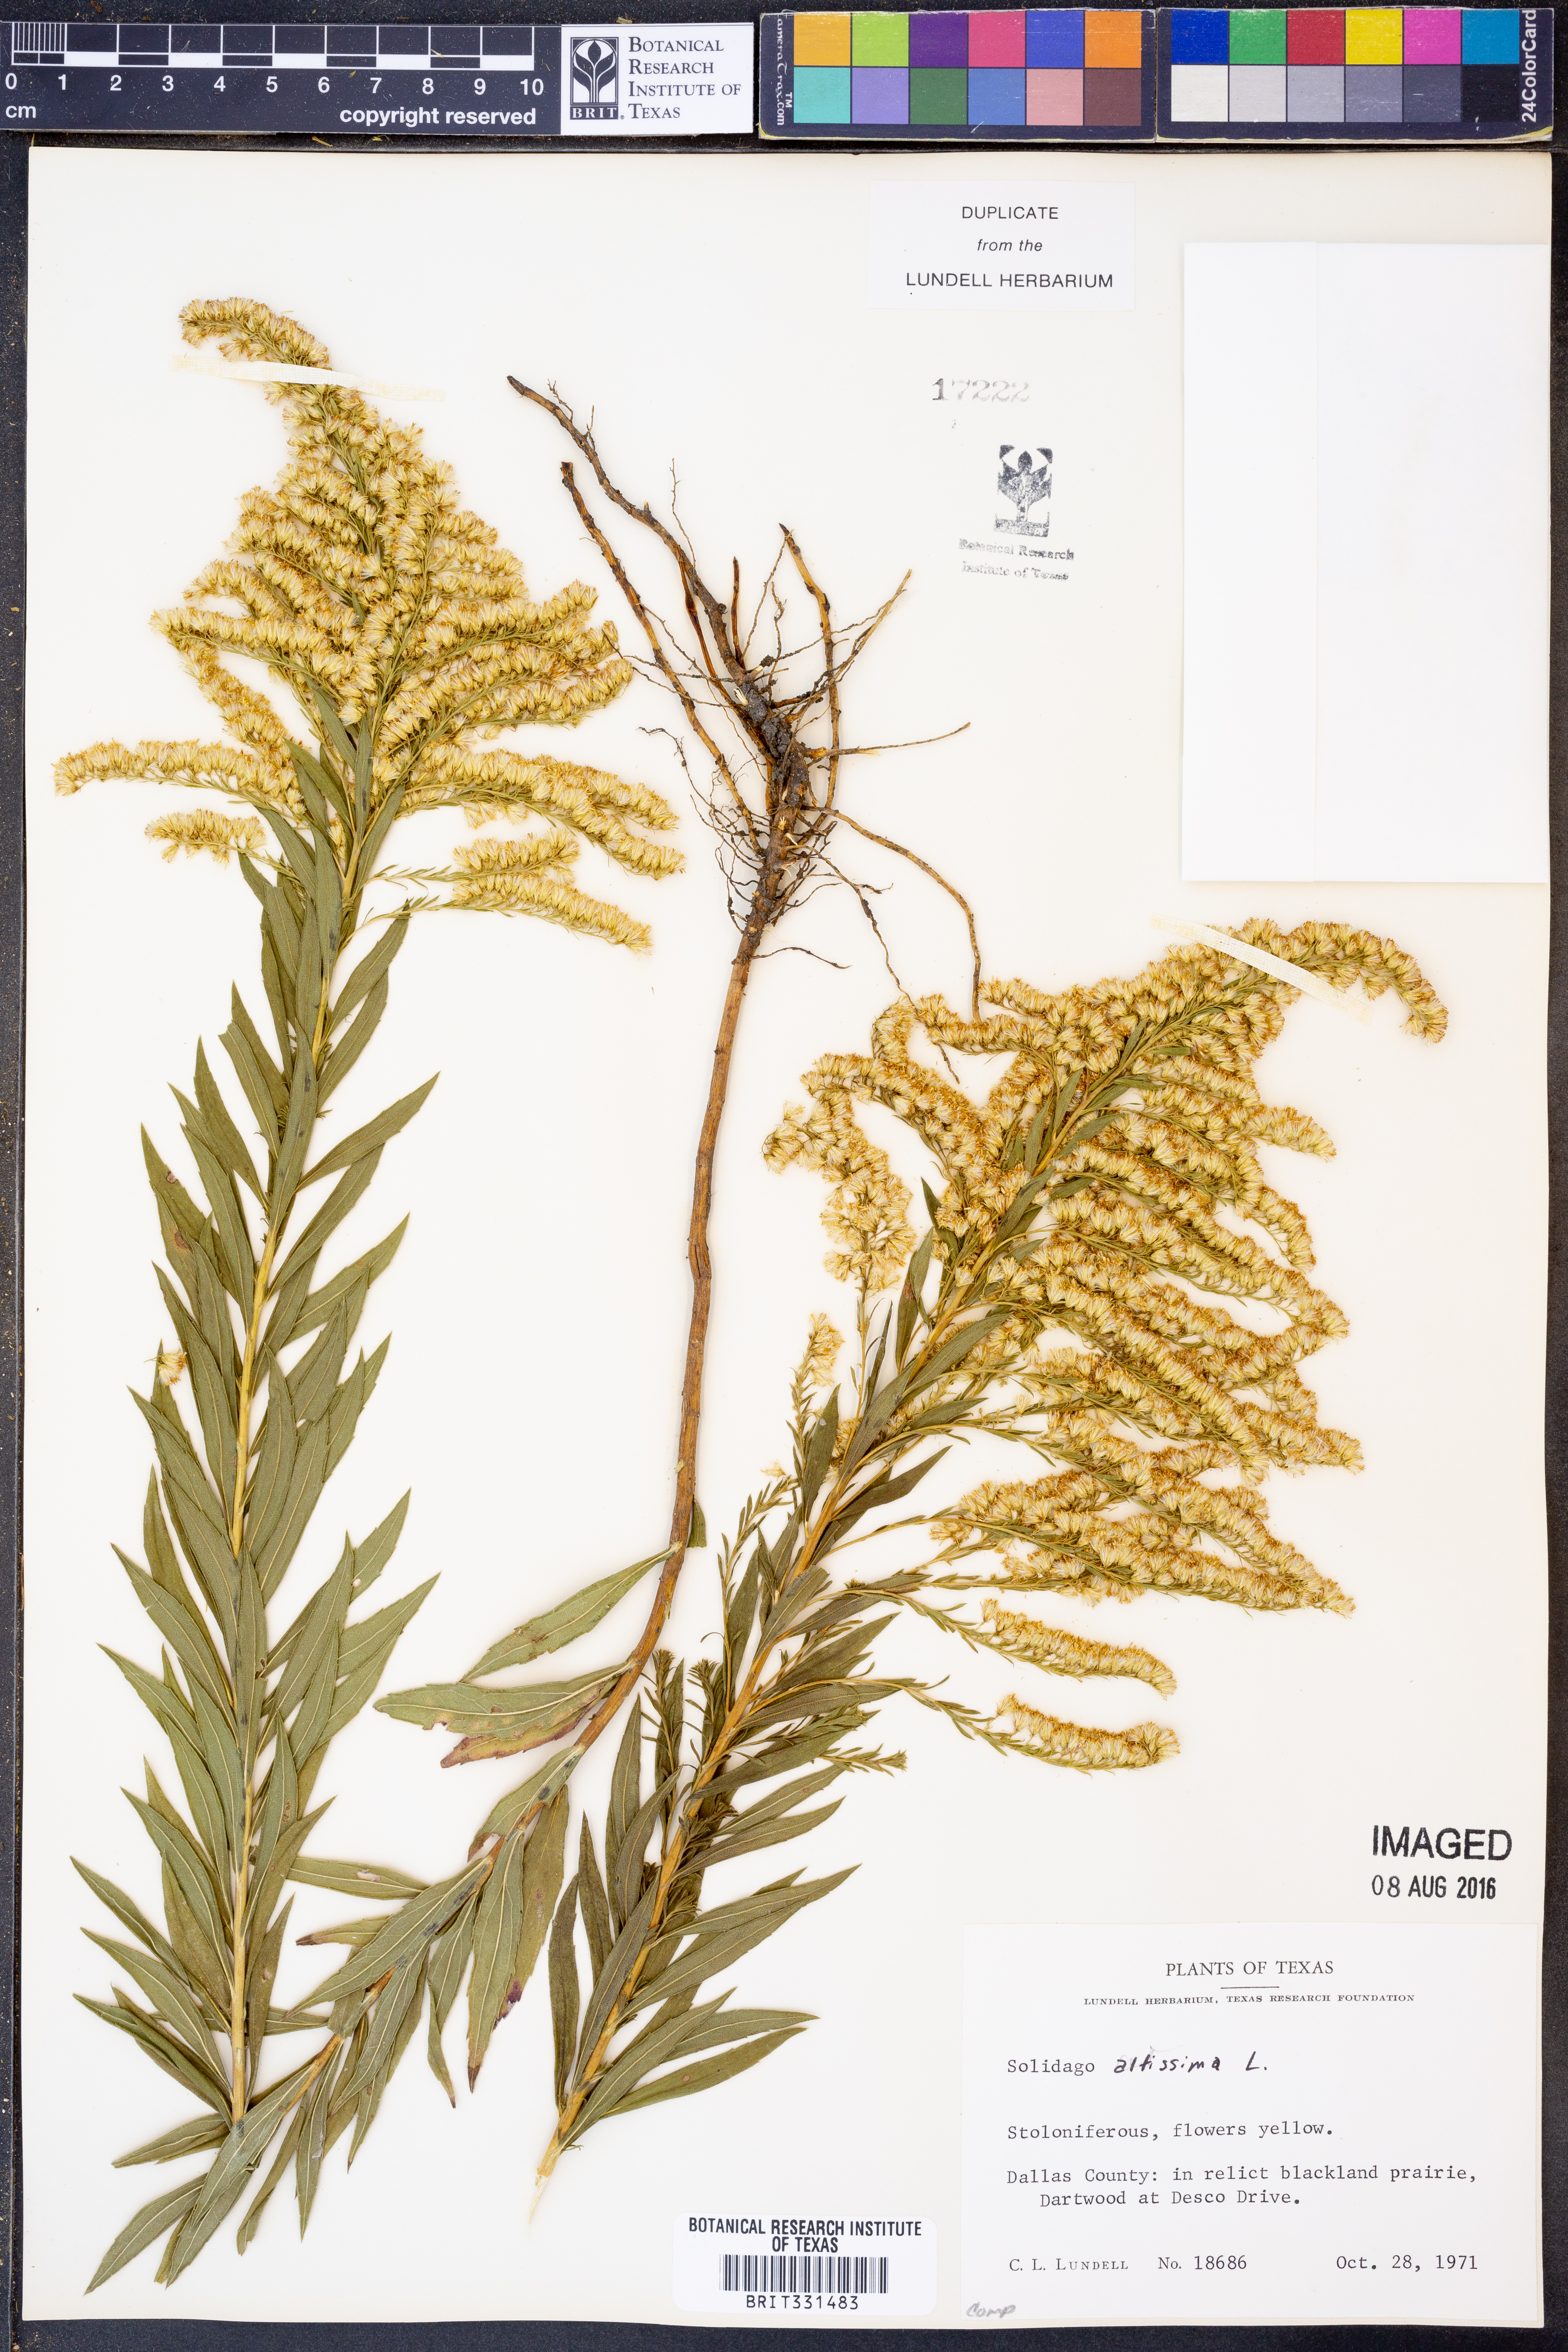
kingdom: Plantae
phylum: Tracheophyta
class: Magnoliopsida
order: Asterales
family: Asteraceae
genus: Solidago
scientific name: Solidago altissima
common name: Late goldenrod
